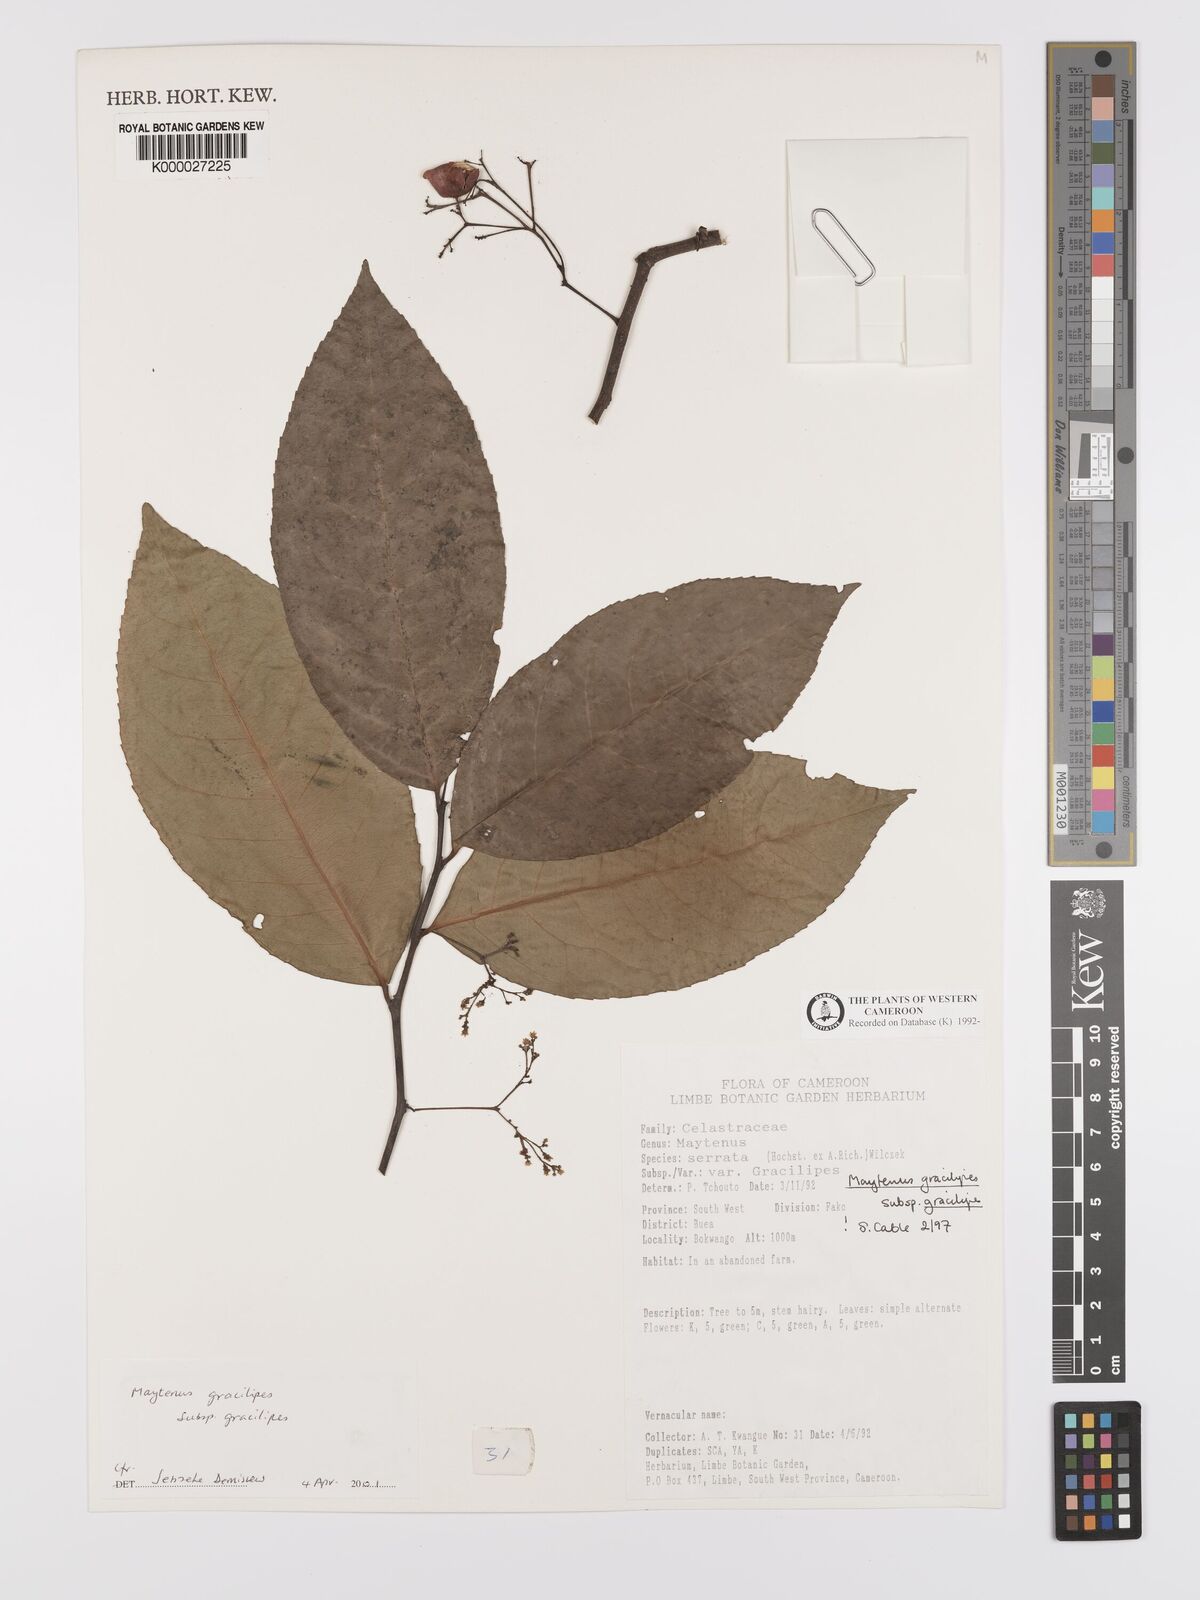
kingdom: Plantae
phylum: Tracheophyta
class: Magnoliopsida
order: Celastrales
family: Celastraceae
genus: Gymnosporia
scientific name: Gymnosporia gracilipes
